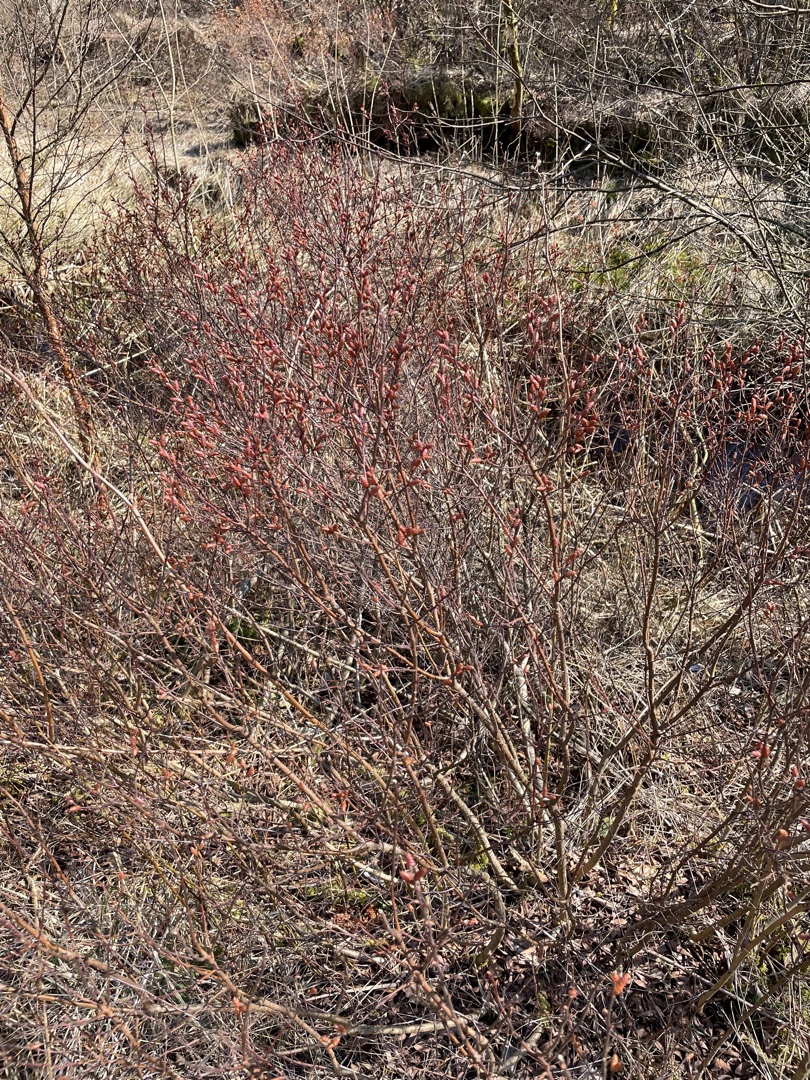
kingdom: Plantae
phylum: Tracheophyta
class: Magnoliopsida
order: Fagales
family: Myricaceae
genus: Myrica
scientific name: Myrica gale
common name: Pors
